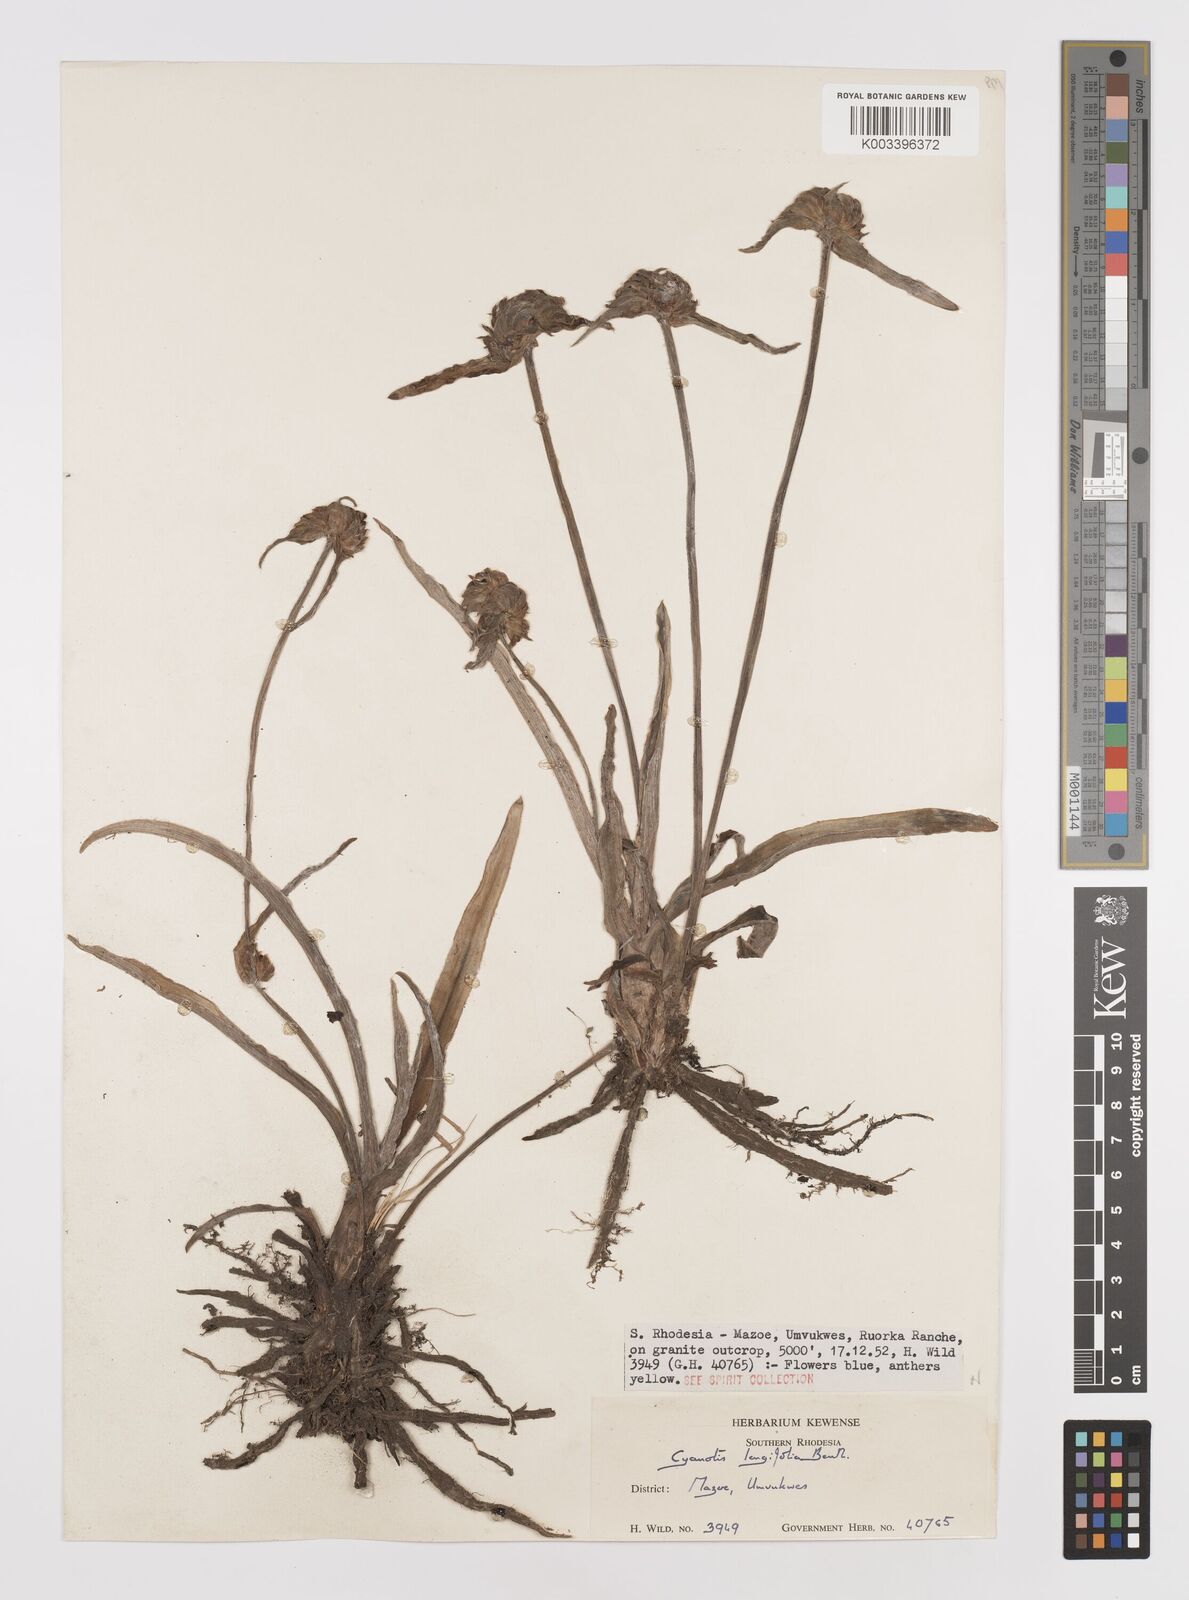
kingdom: Plantae
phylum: Tracheophyta
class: Liliopsida
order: Commelinales
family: Commelinaceae
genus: Cyanotis
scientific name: Cyanotis longifolia
